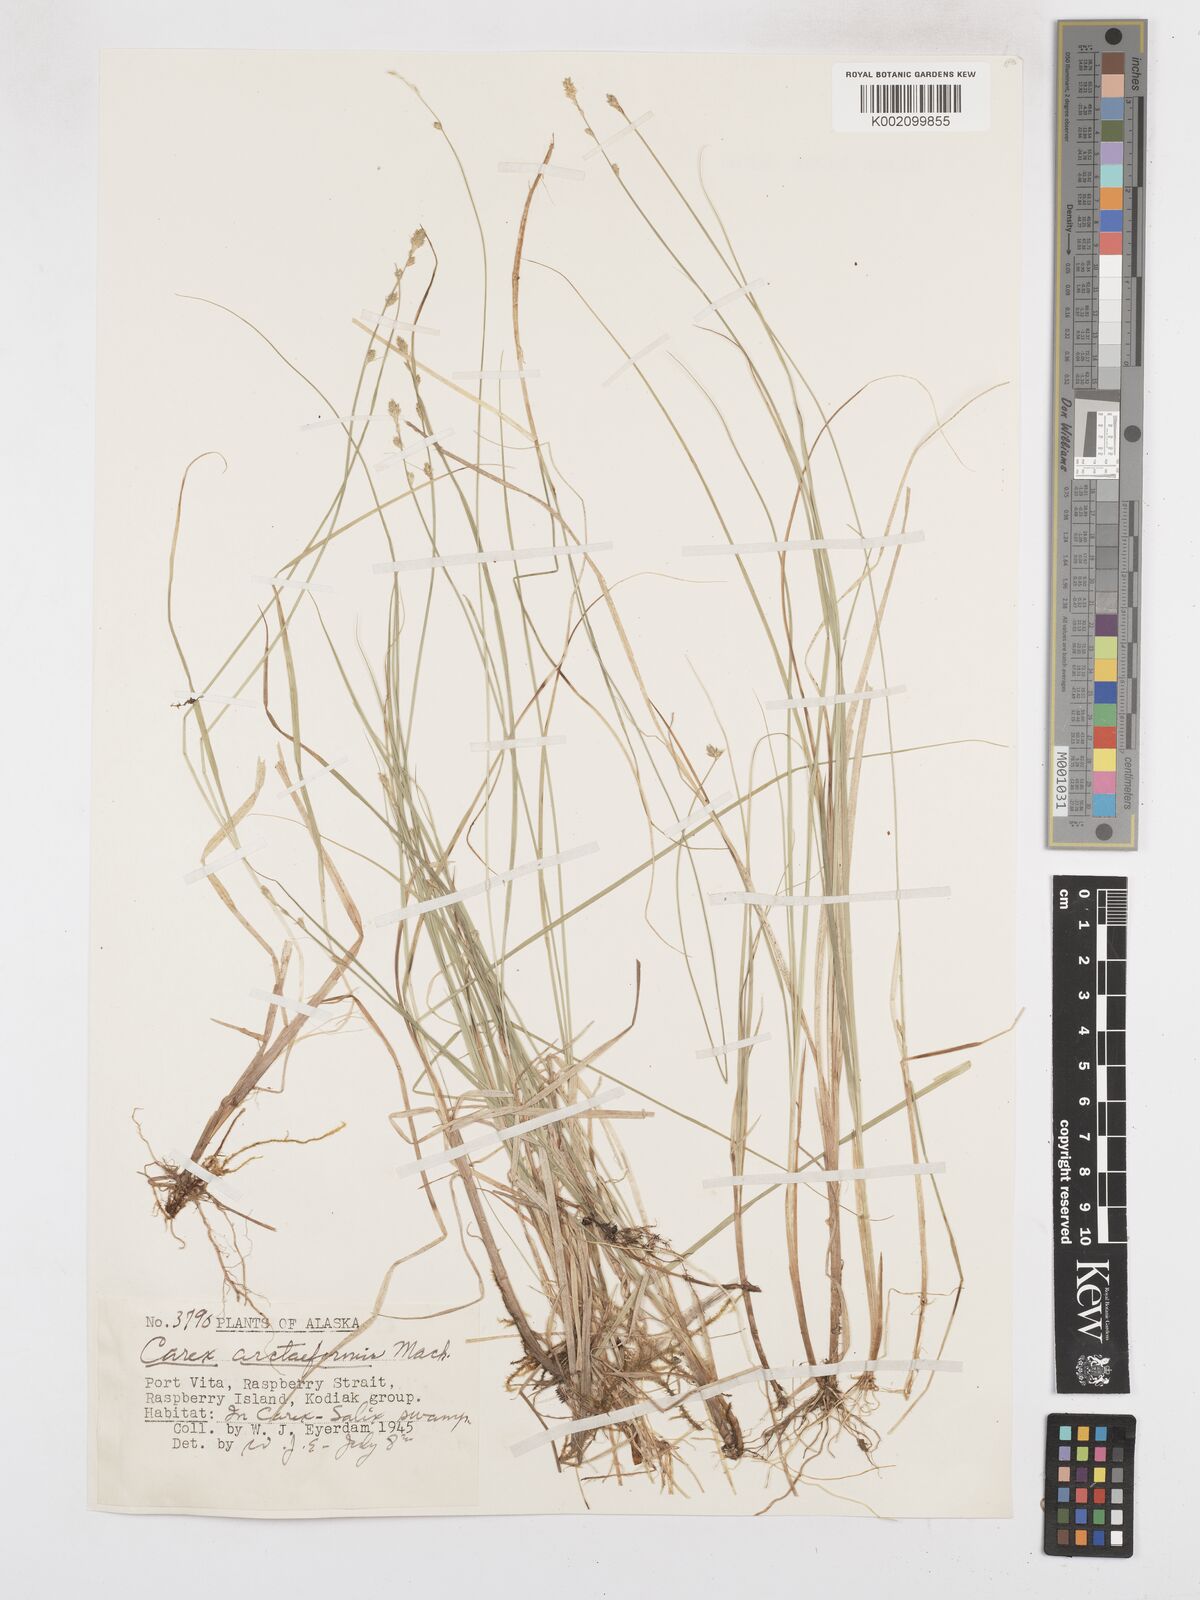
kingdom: Plantae
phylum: Tracheophyta
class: Liliopsida
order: Poales
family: Cyperaceae
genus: Carex
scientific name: Carex arctiformis
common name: Polar sedge
